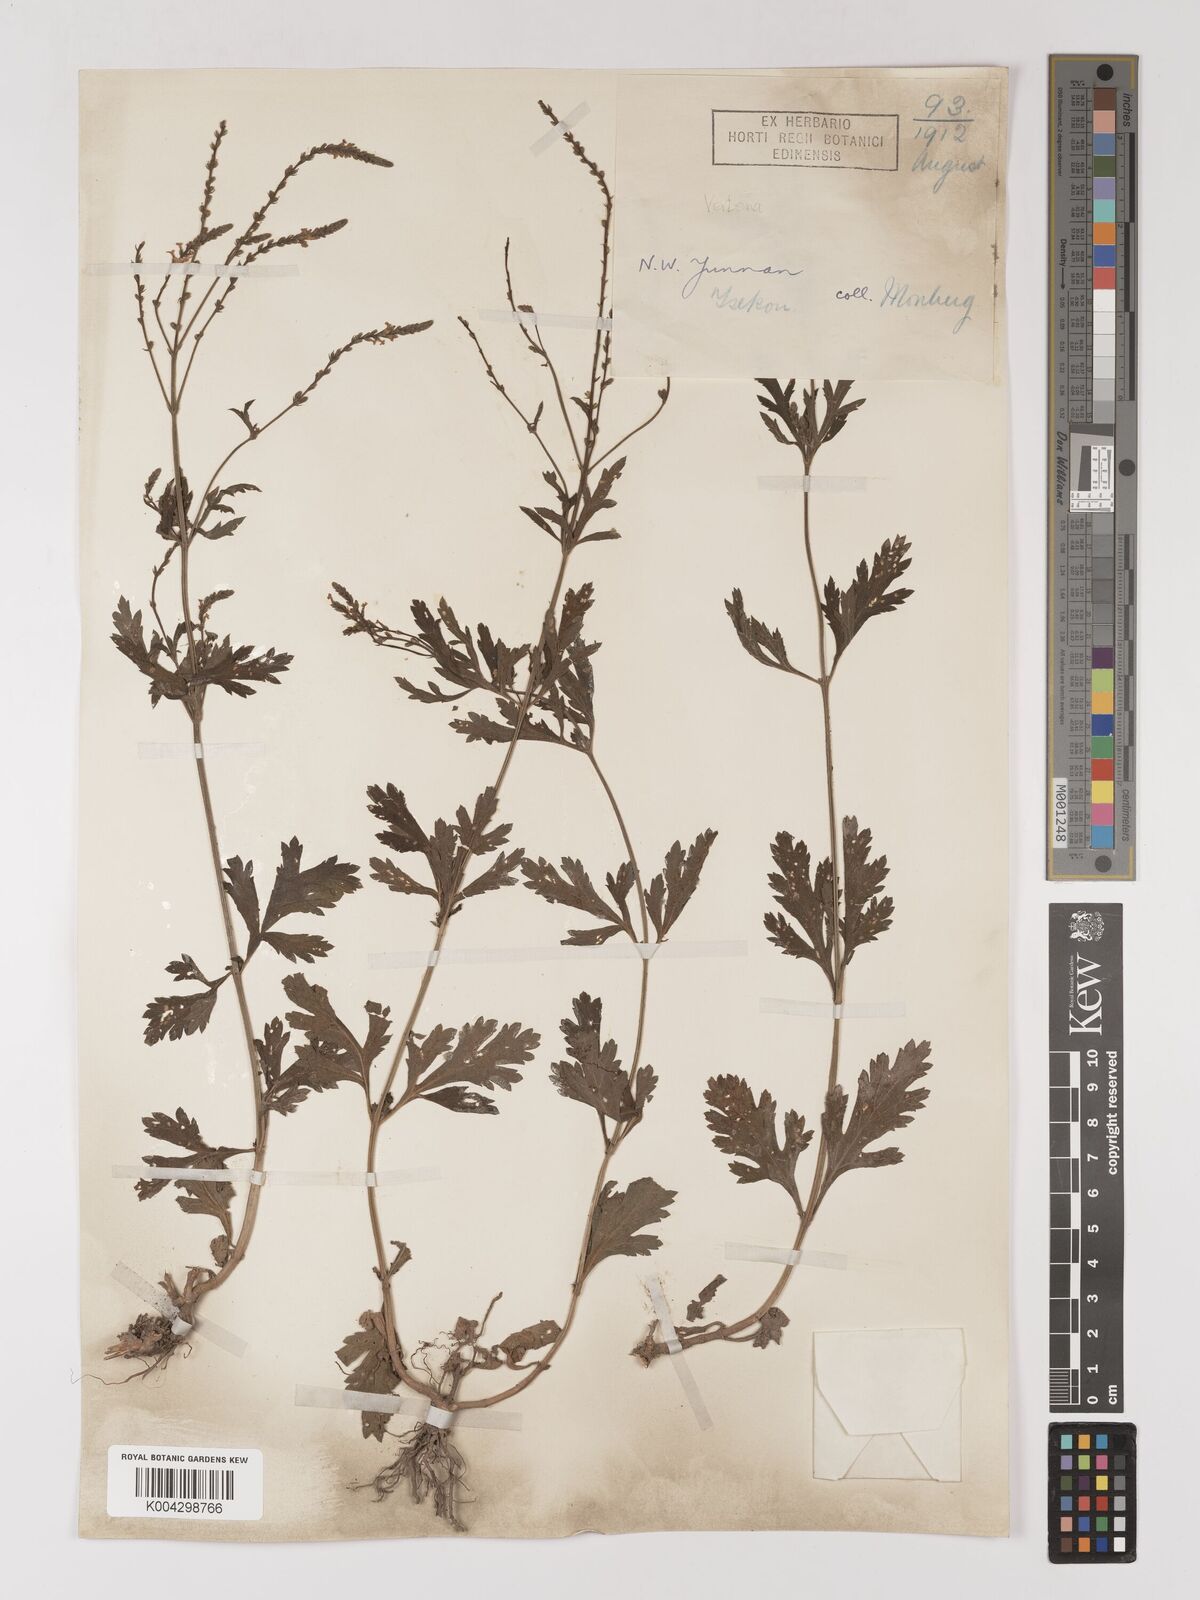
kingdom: Plantae
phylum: Tracheophyta
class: Magnoliopsida
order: Lamiales
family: Verbenaceae
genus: Verbena
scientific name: Verbena officinalis
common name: Vervain
